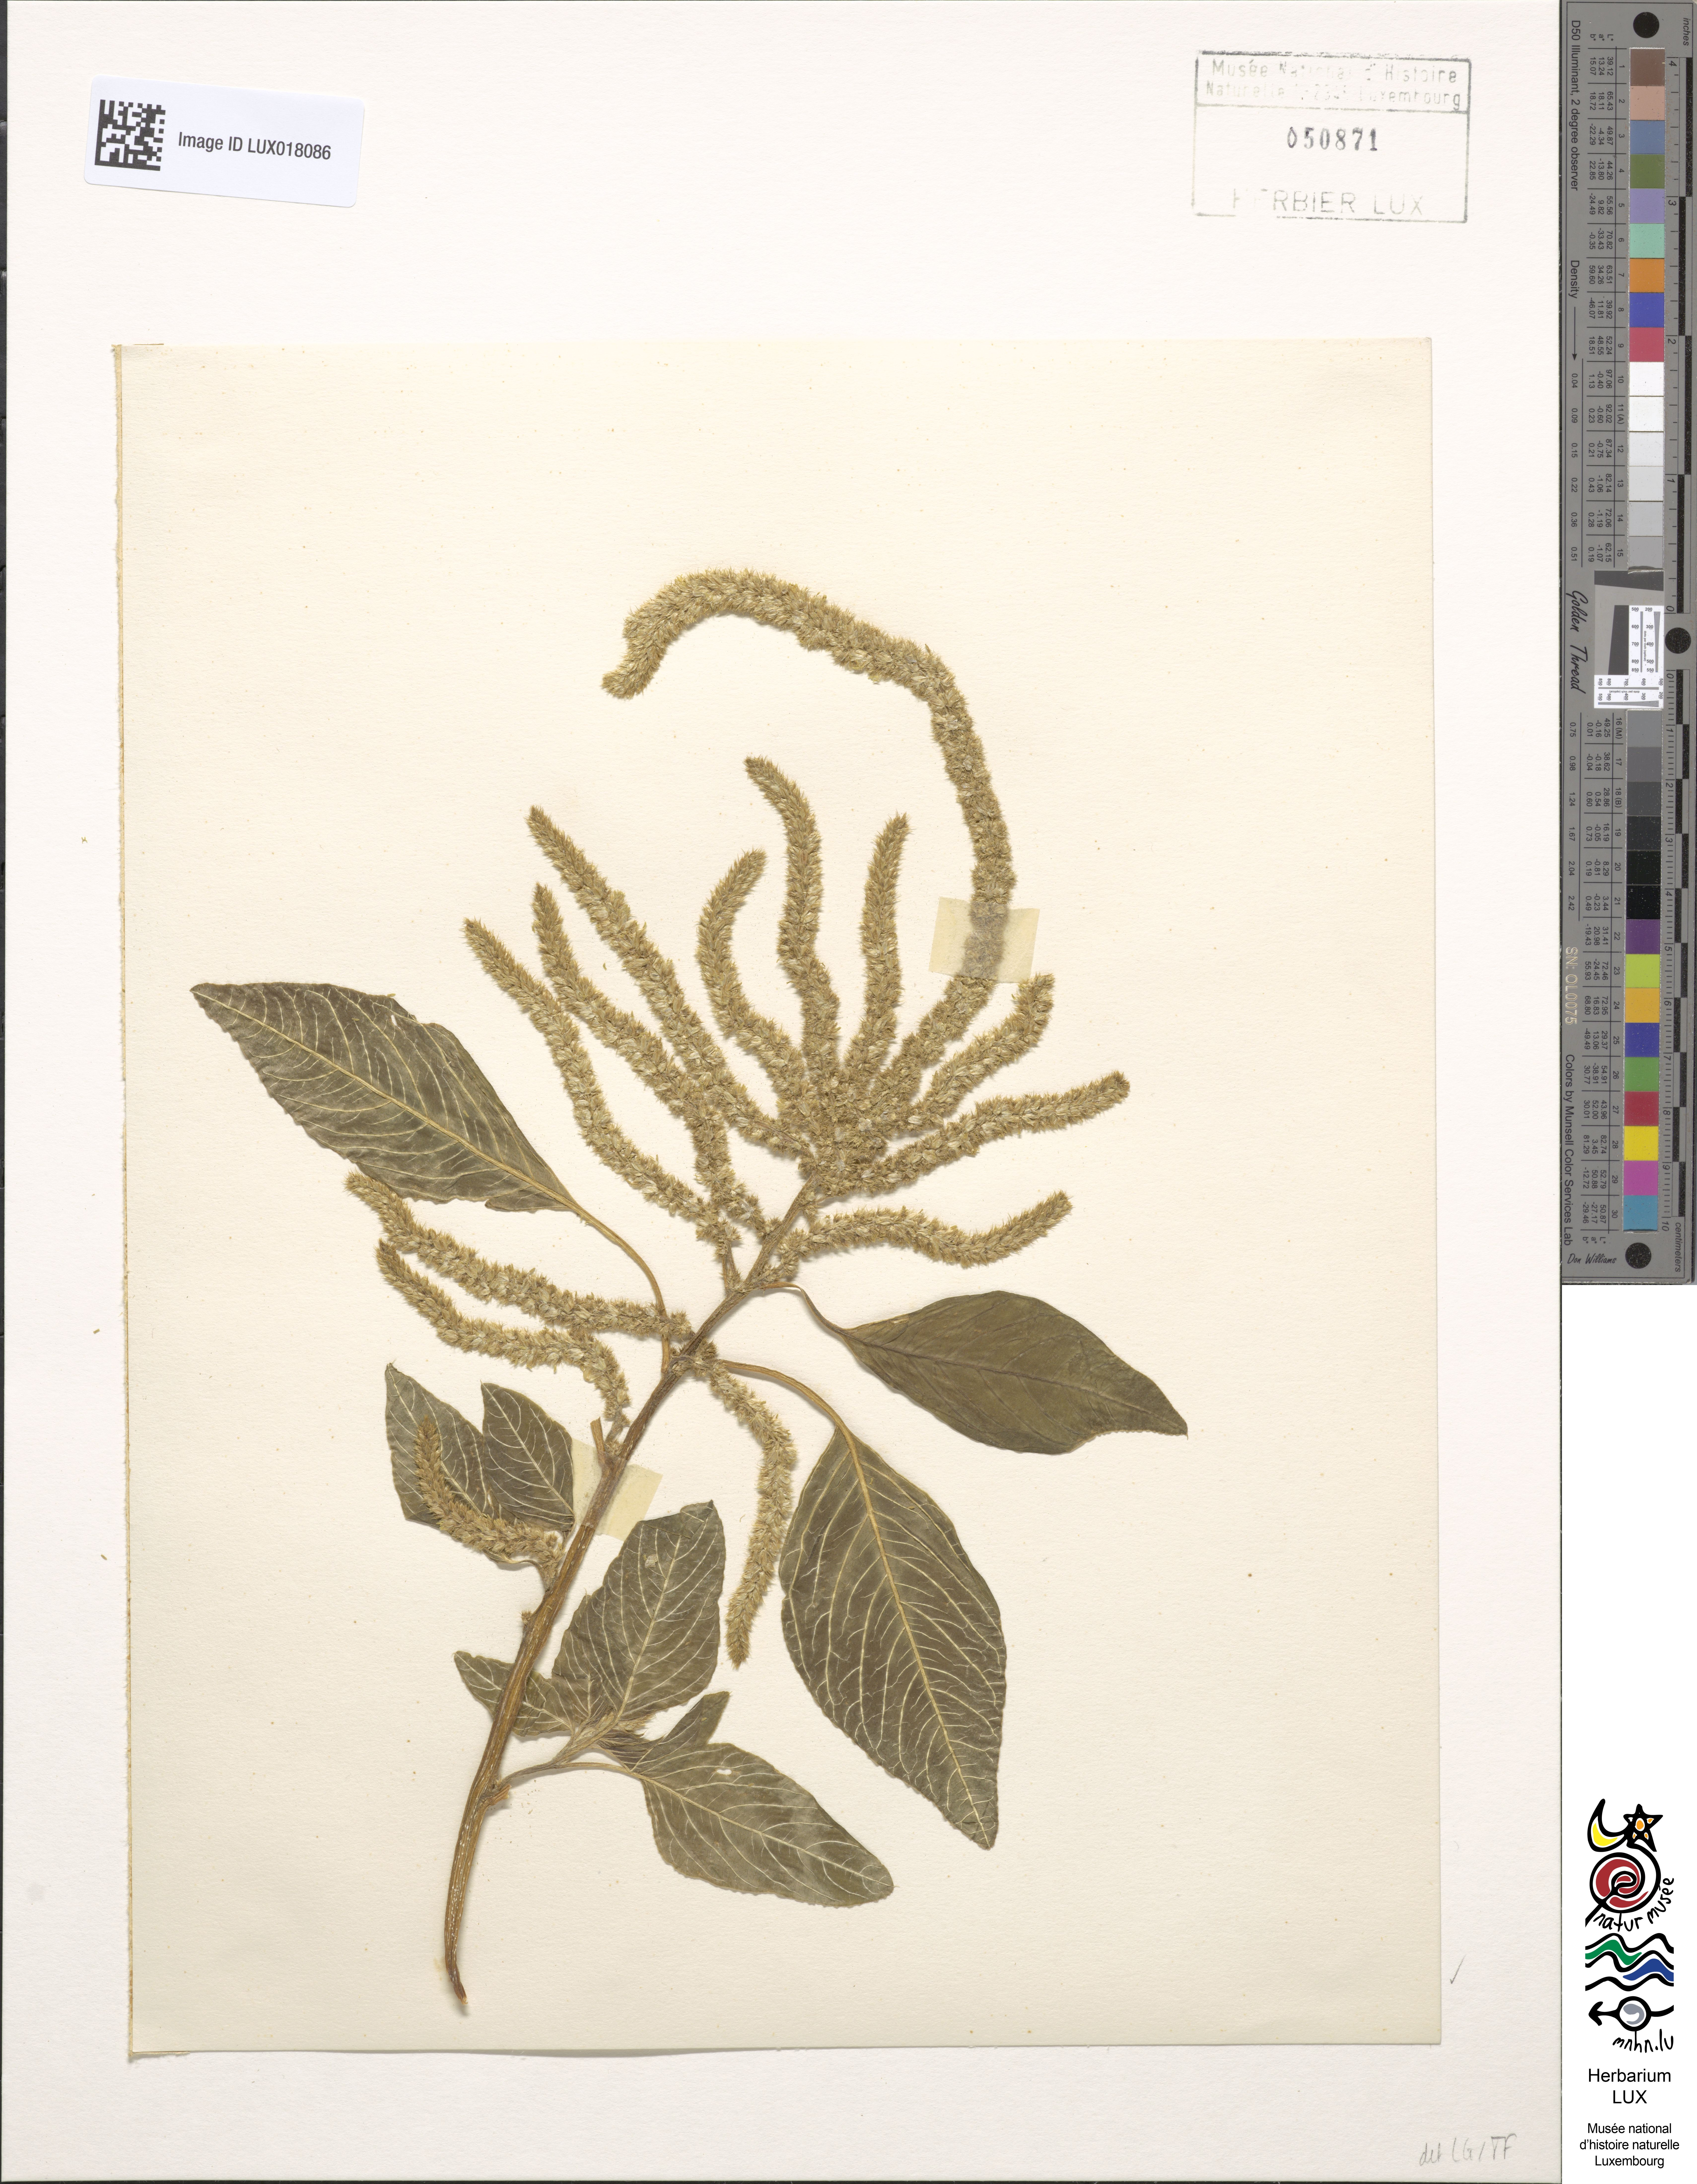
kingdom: Plantae
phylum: Tracheophyta
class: Magnoliopsida
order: Caryophyllales
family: Amaranthaceae
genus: Amaranthus
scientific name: Amaranthus caudatus
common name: Love-lies-bleeding
